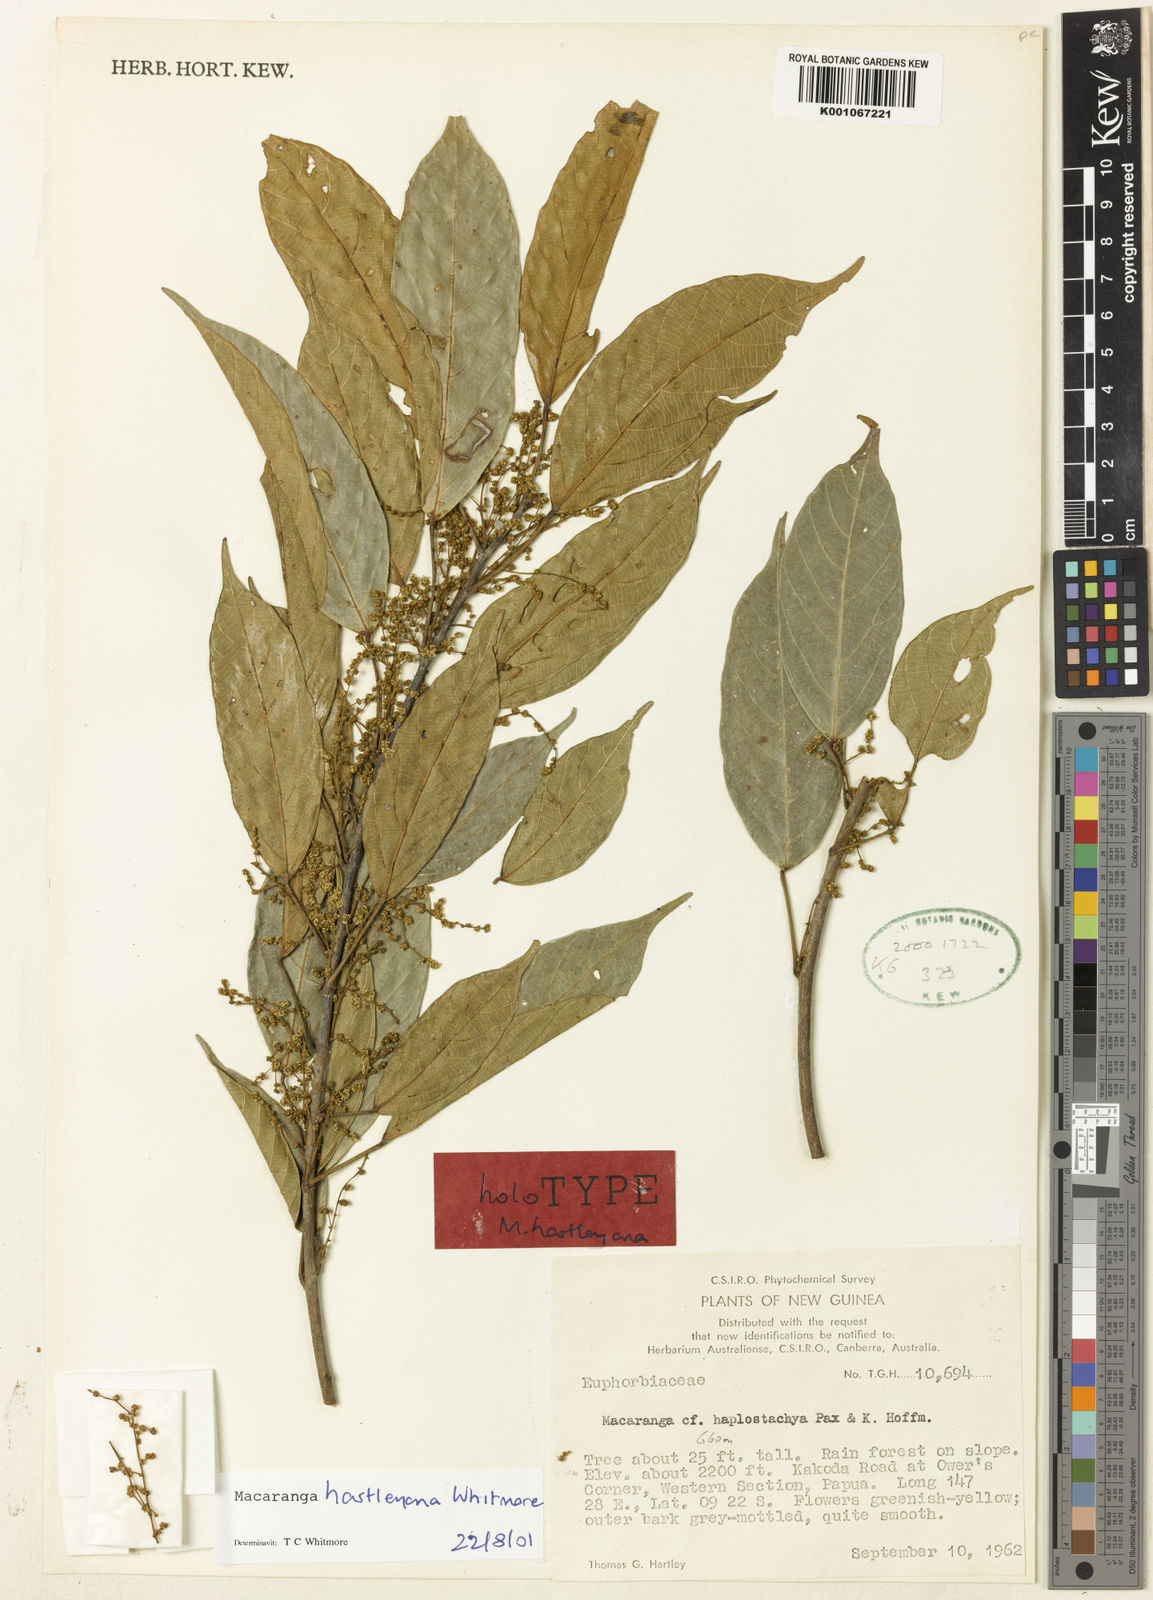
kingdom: Plantae
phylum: Tracheophyta
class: Magnoliopsida
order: Malpighiales
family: Euphorbiaceae
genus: Macaranga
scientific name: Macaranga hartleyana
